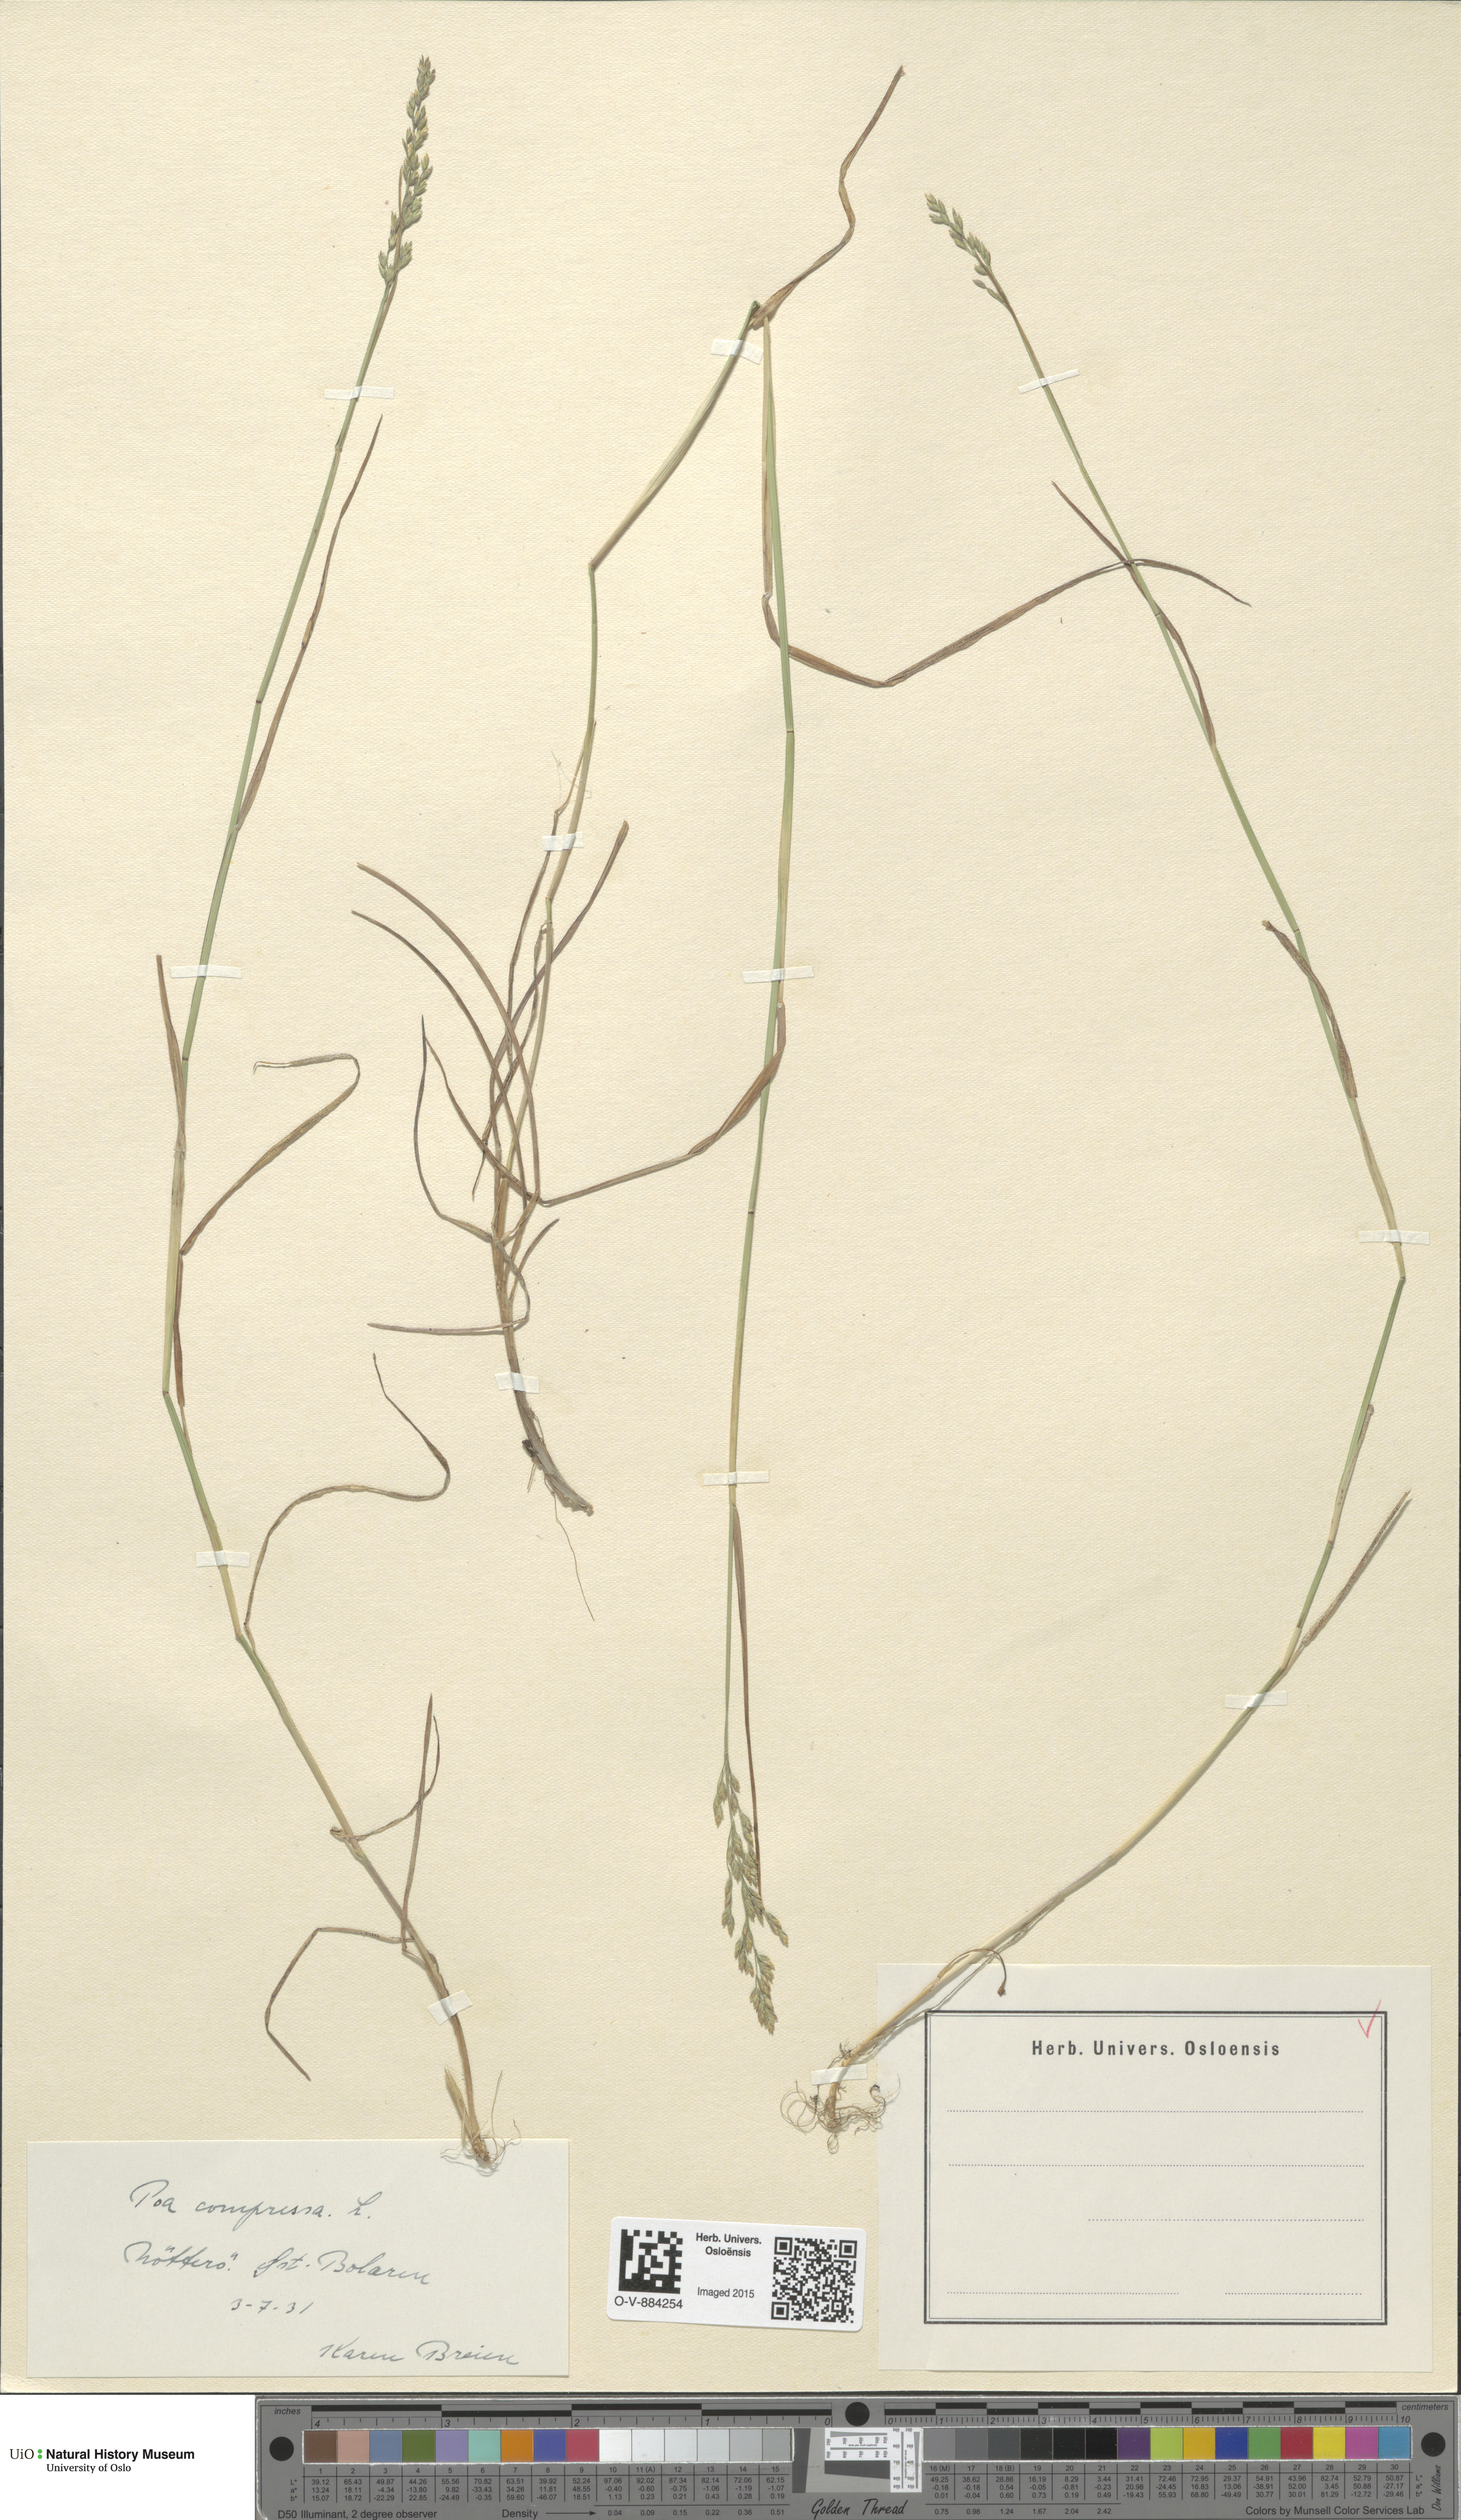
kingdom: Plantae
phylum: Tracheophyta
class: Liliopsida
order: Poales
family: Poaceae
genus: Poa
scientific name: Poa compressa
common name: Canada bluegrass
